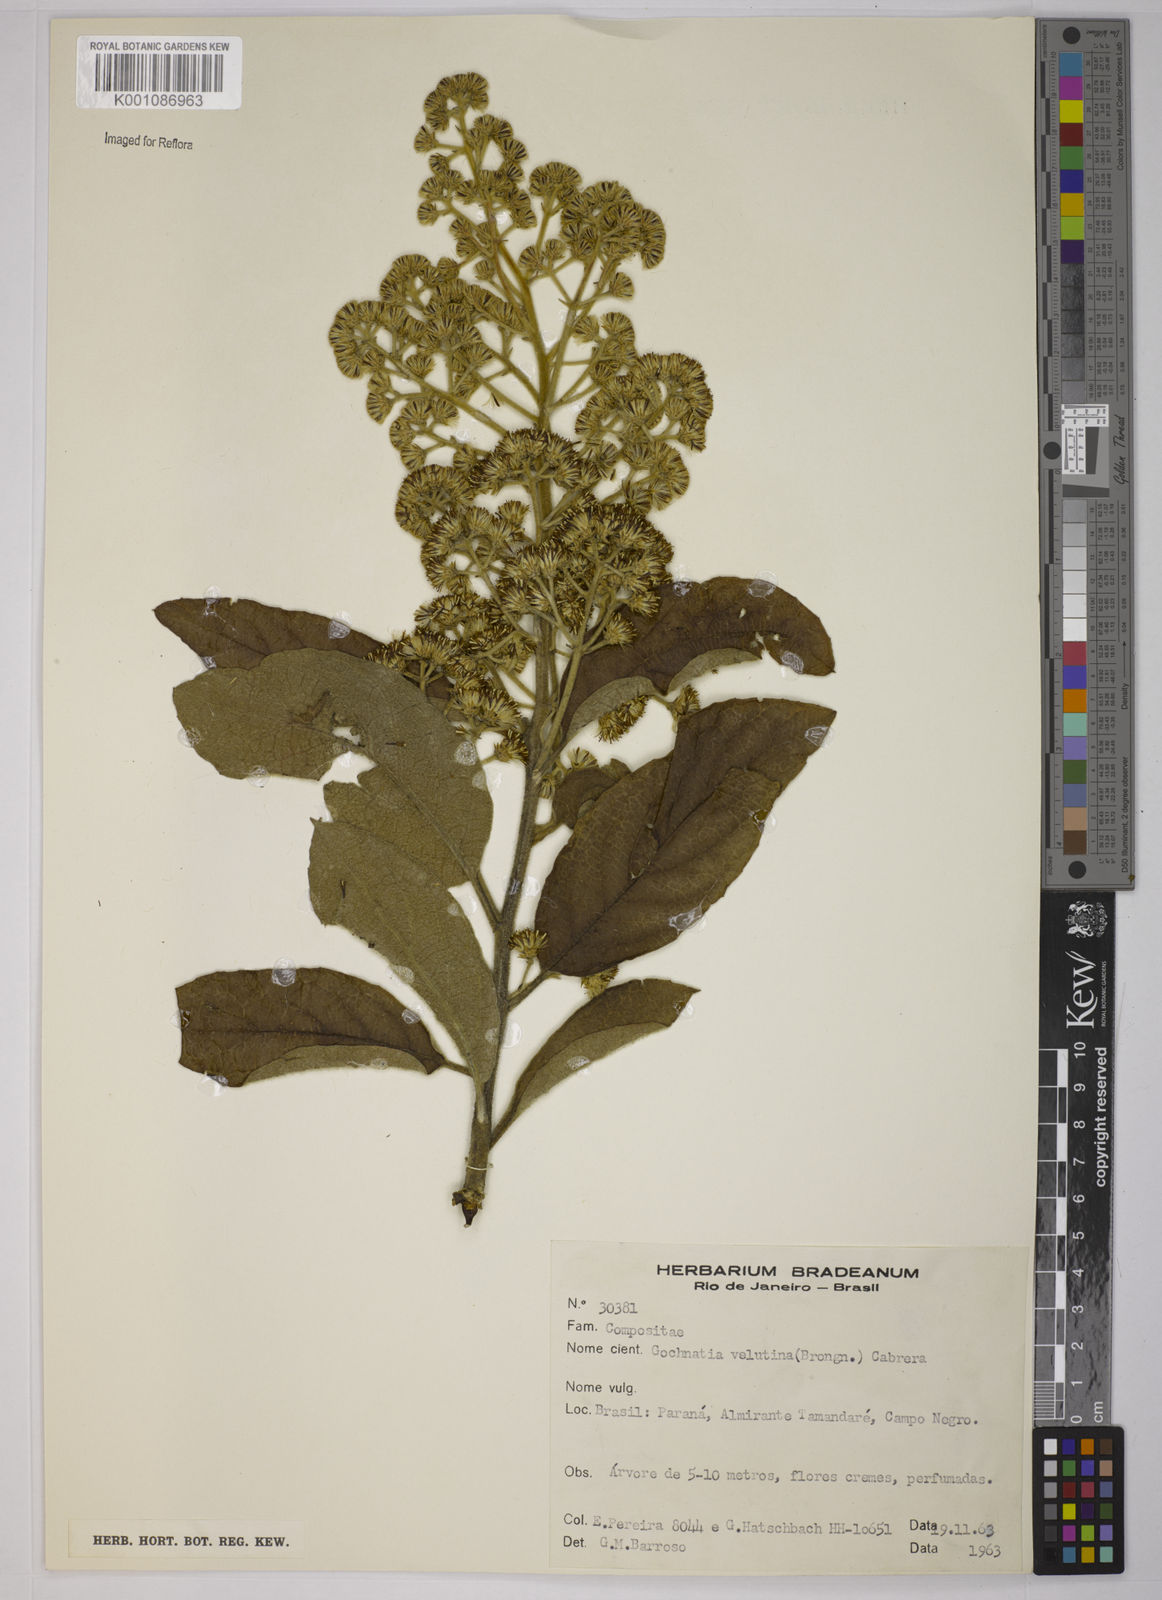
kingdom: Plantae
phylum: Tracheophyta
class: Magnoliopsida
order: Asterales
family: Asteraceae
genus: Moquiniastrum
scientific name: Moquiniastrum polymorphum
